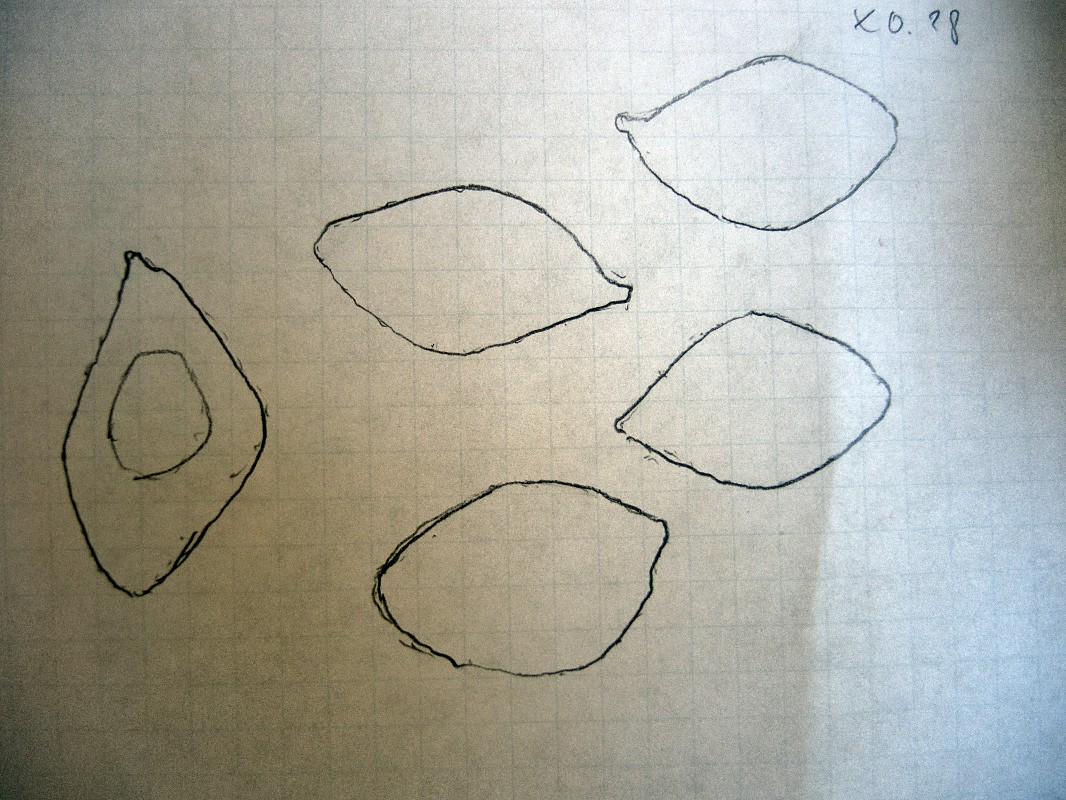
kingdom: Fungi
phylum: Basidiomycota
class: Agaricomycetes
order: Agaricales
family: Lyophyllaceae
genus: Lyophyllum
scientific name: Lyophyllum deliberatum
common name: gråbrun gråblad
